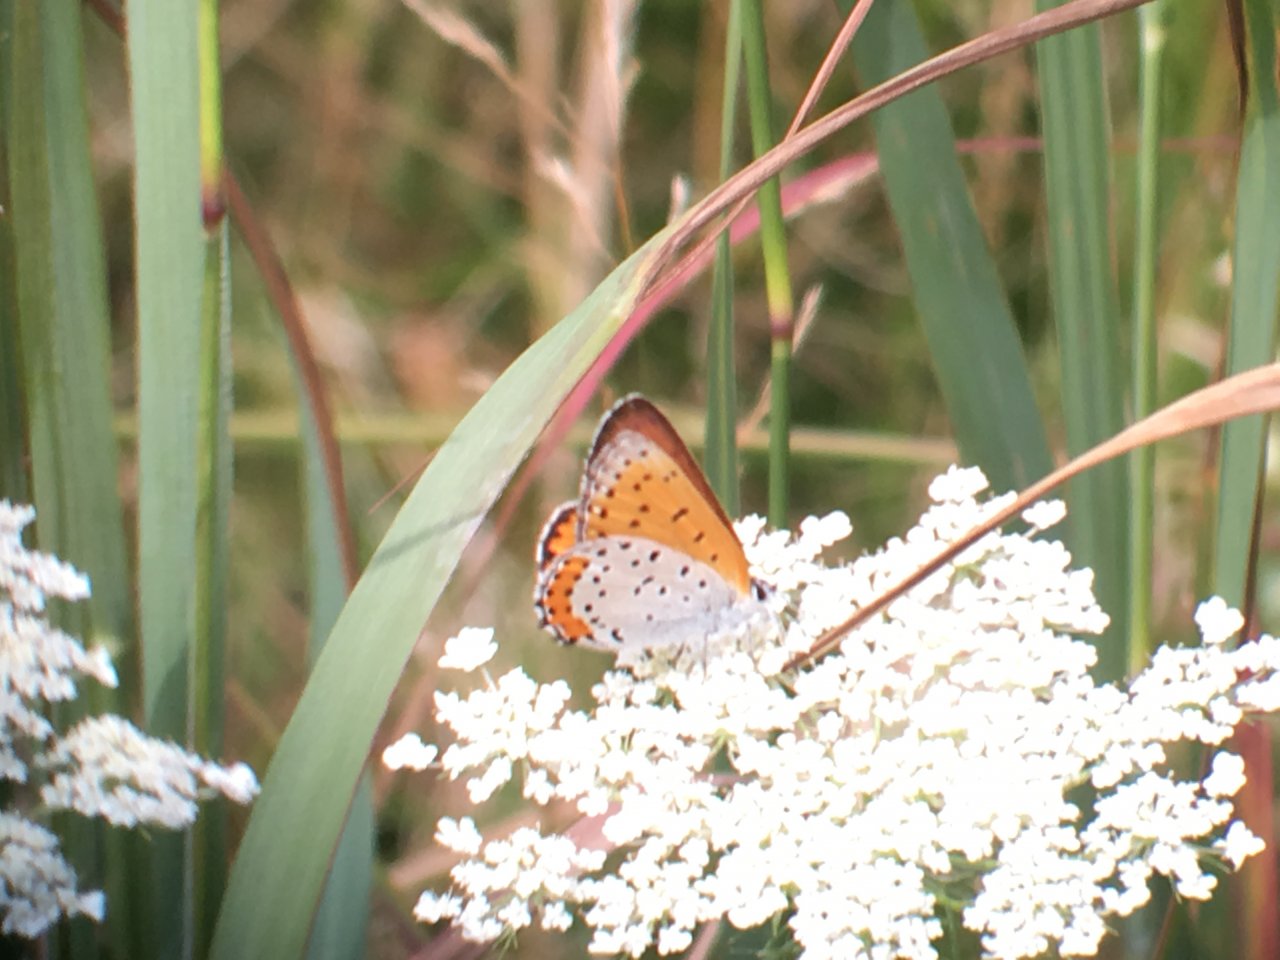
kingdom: Animalia
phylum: Arthropoda
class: Insecta
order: Lepidoptera
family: Sesiidae
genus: Sesia
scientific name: Sesia Lycaena hyllus
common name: Bronze Copper
